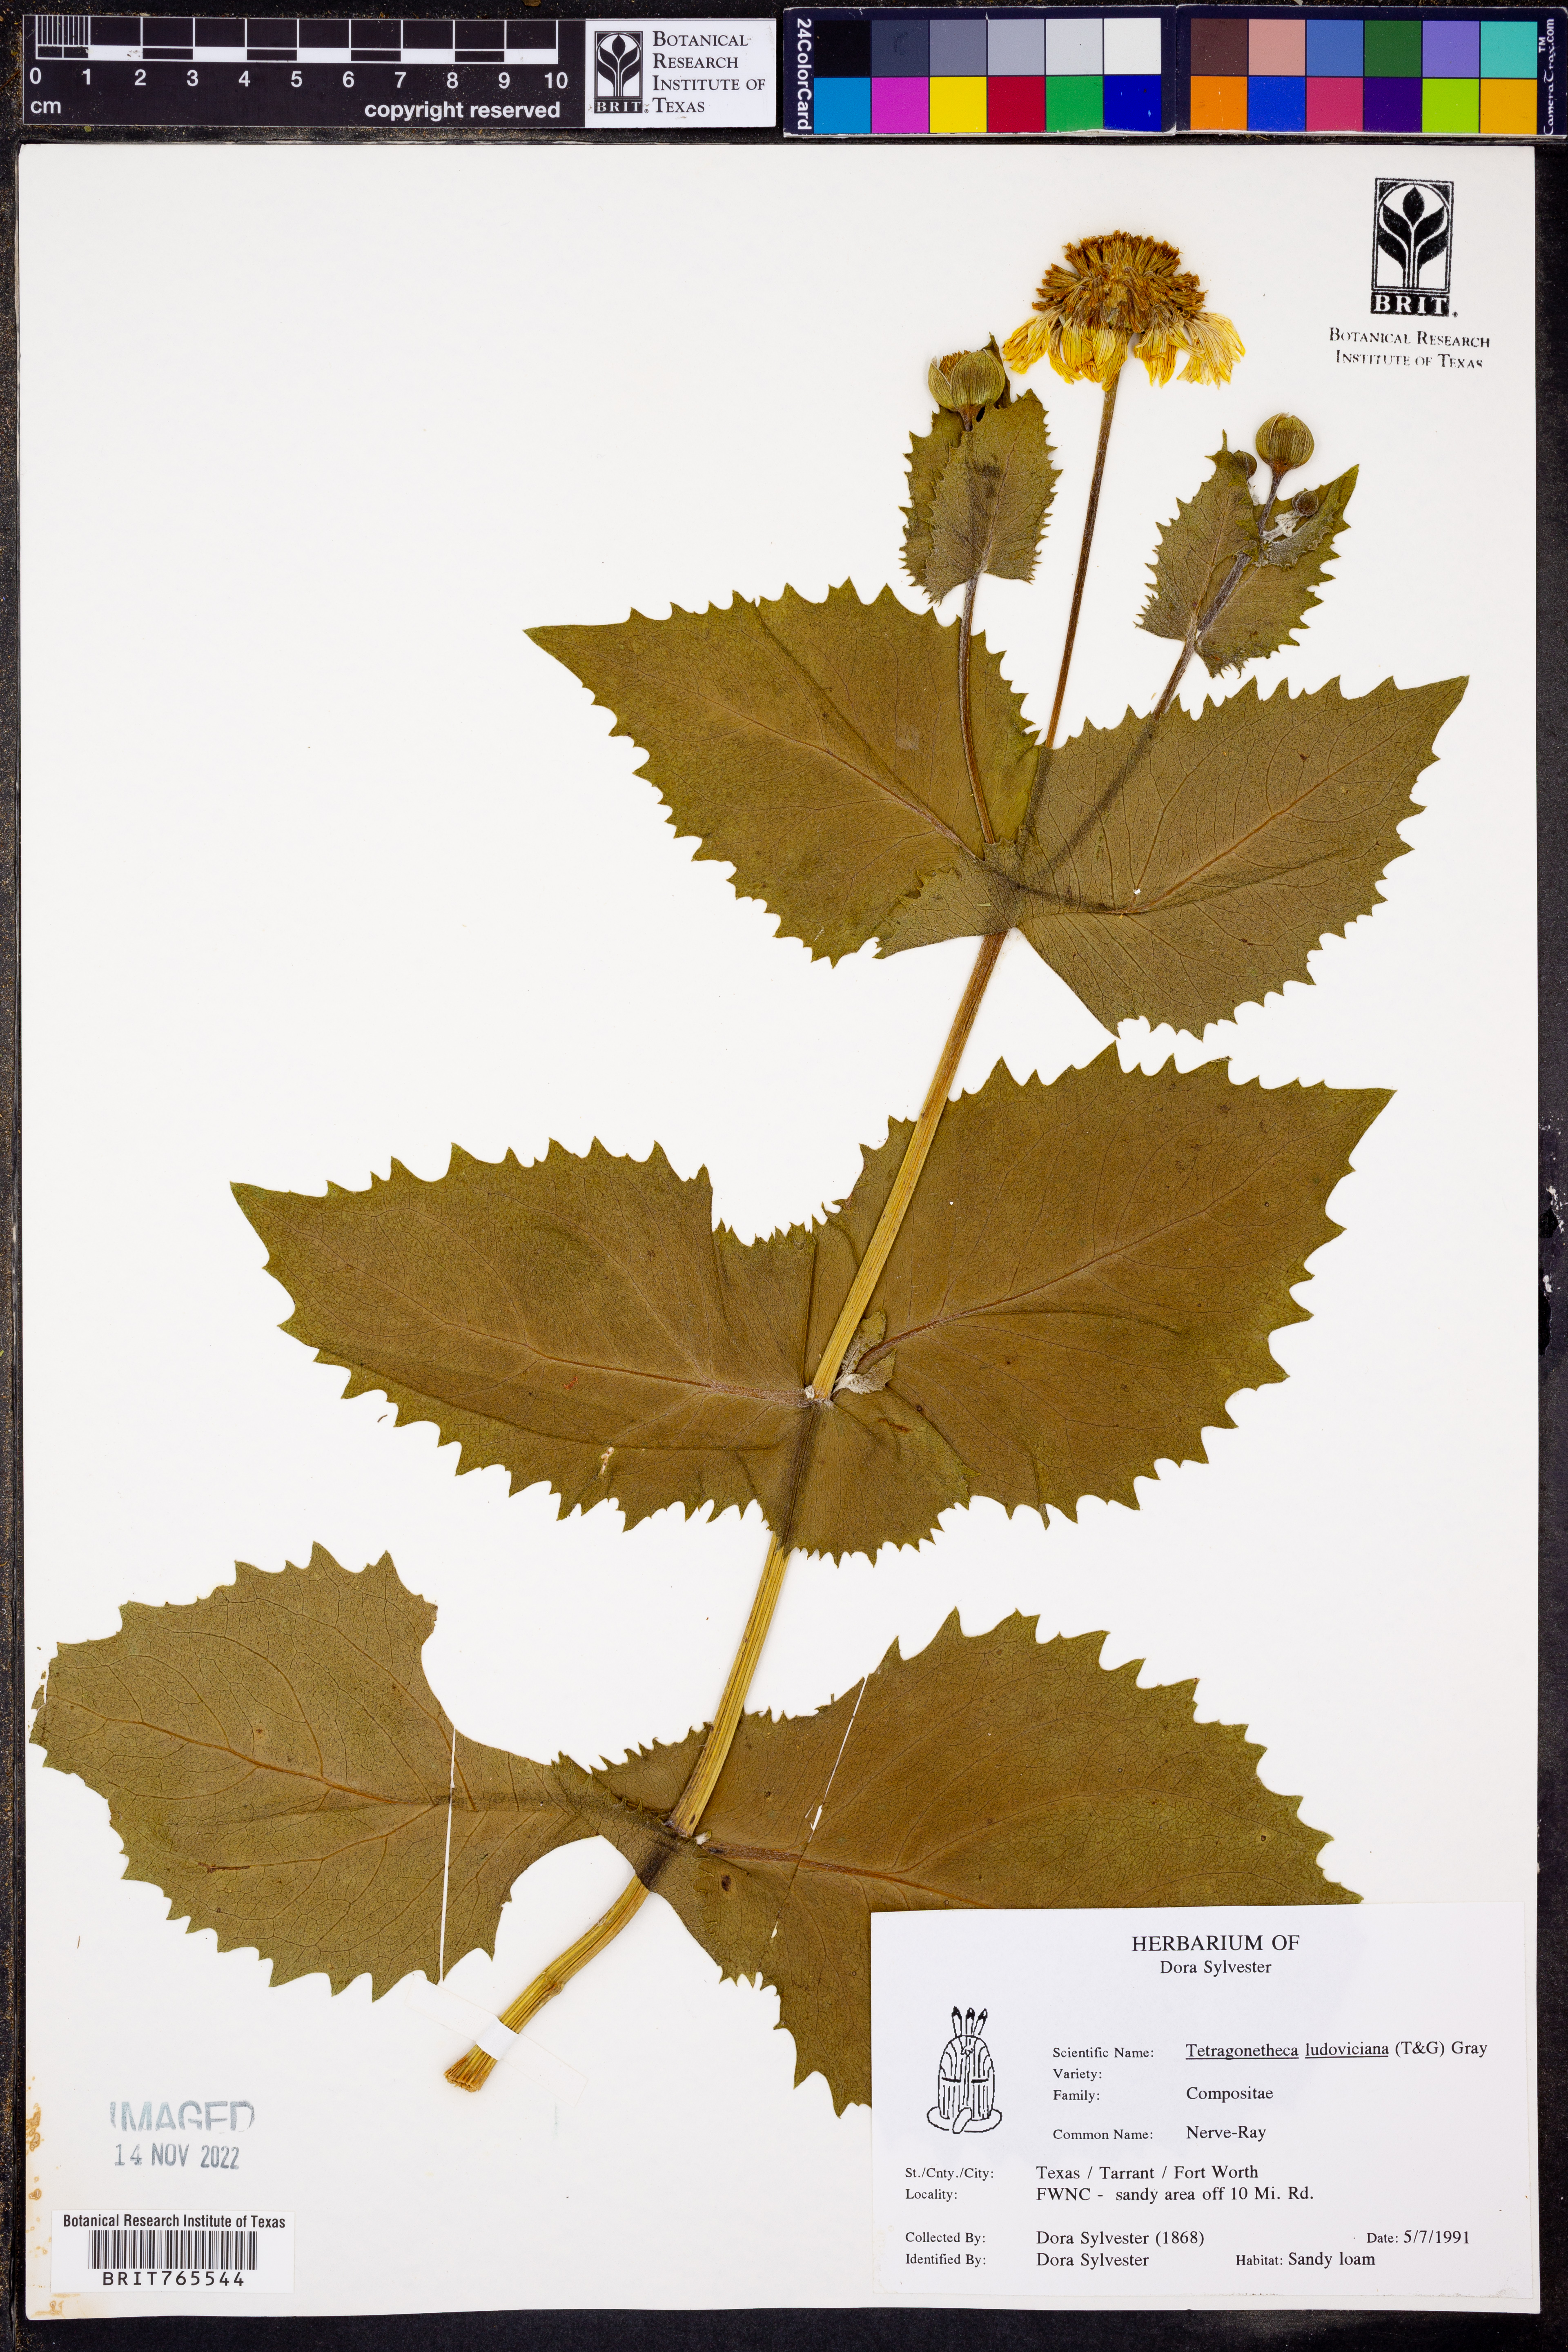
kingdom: Plantae
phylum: Tracheophyta
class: Magnoliopsida
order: Asterales
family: Asteraceae
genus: Tetragonotheca
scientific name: Tetragonotheca ludoviciana
